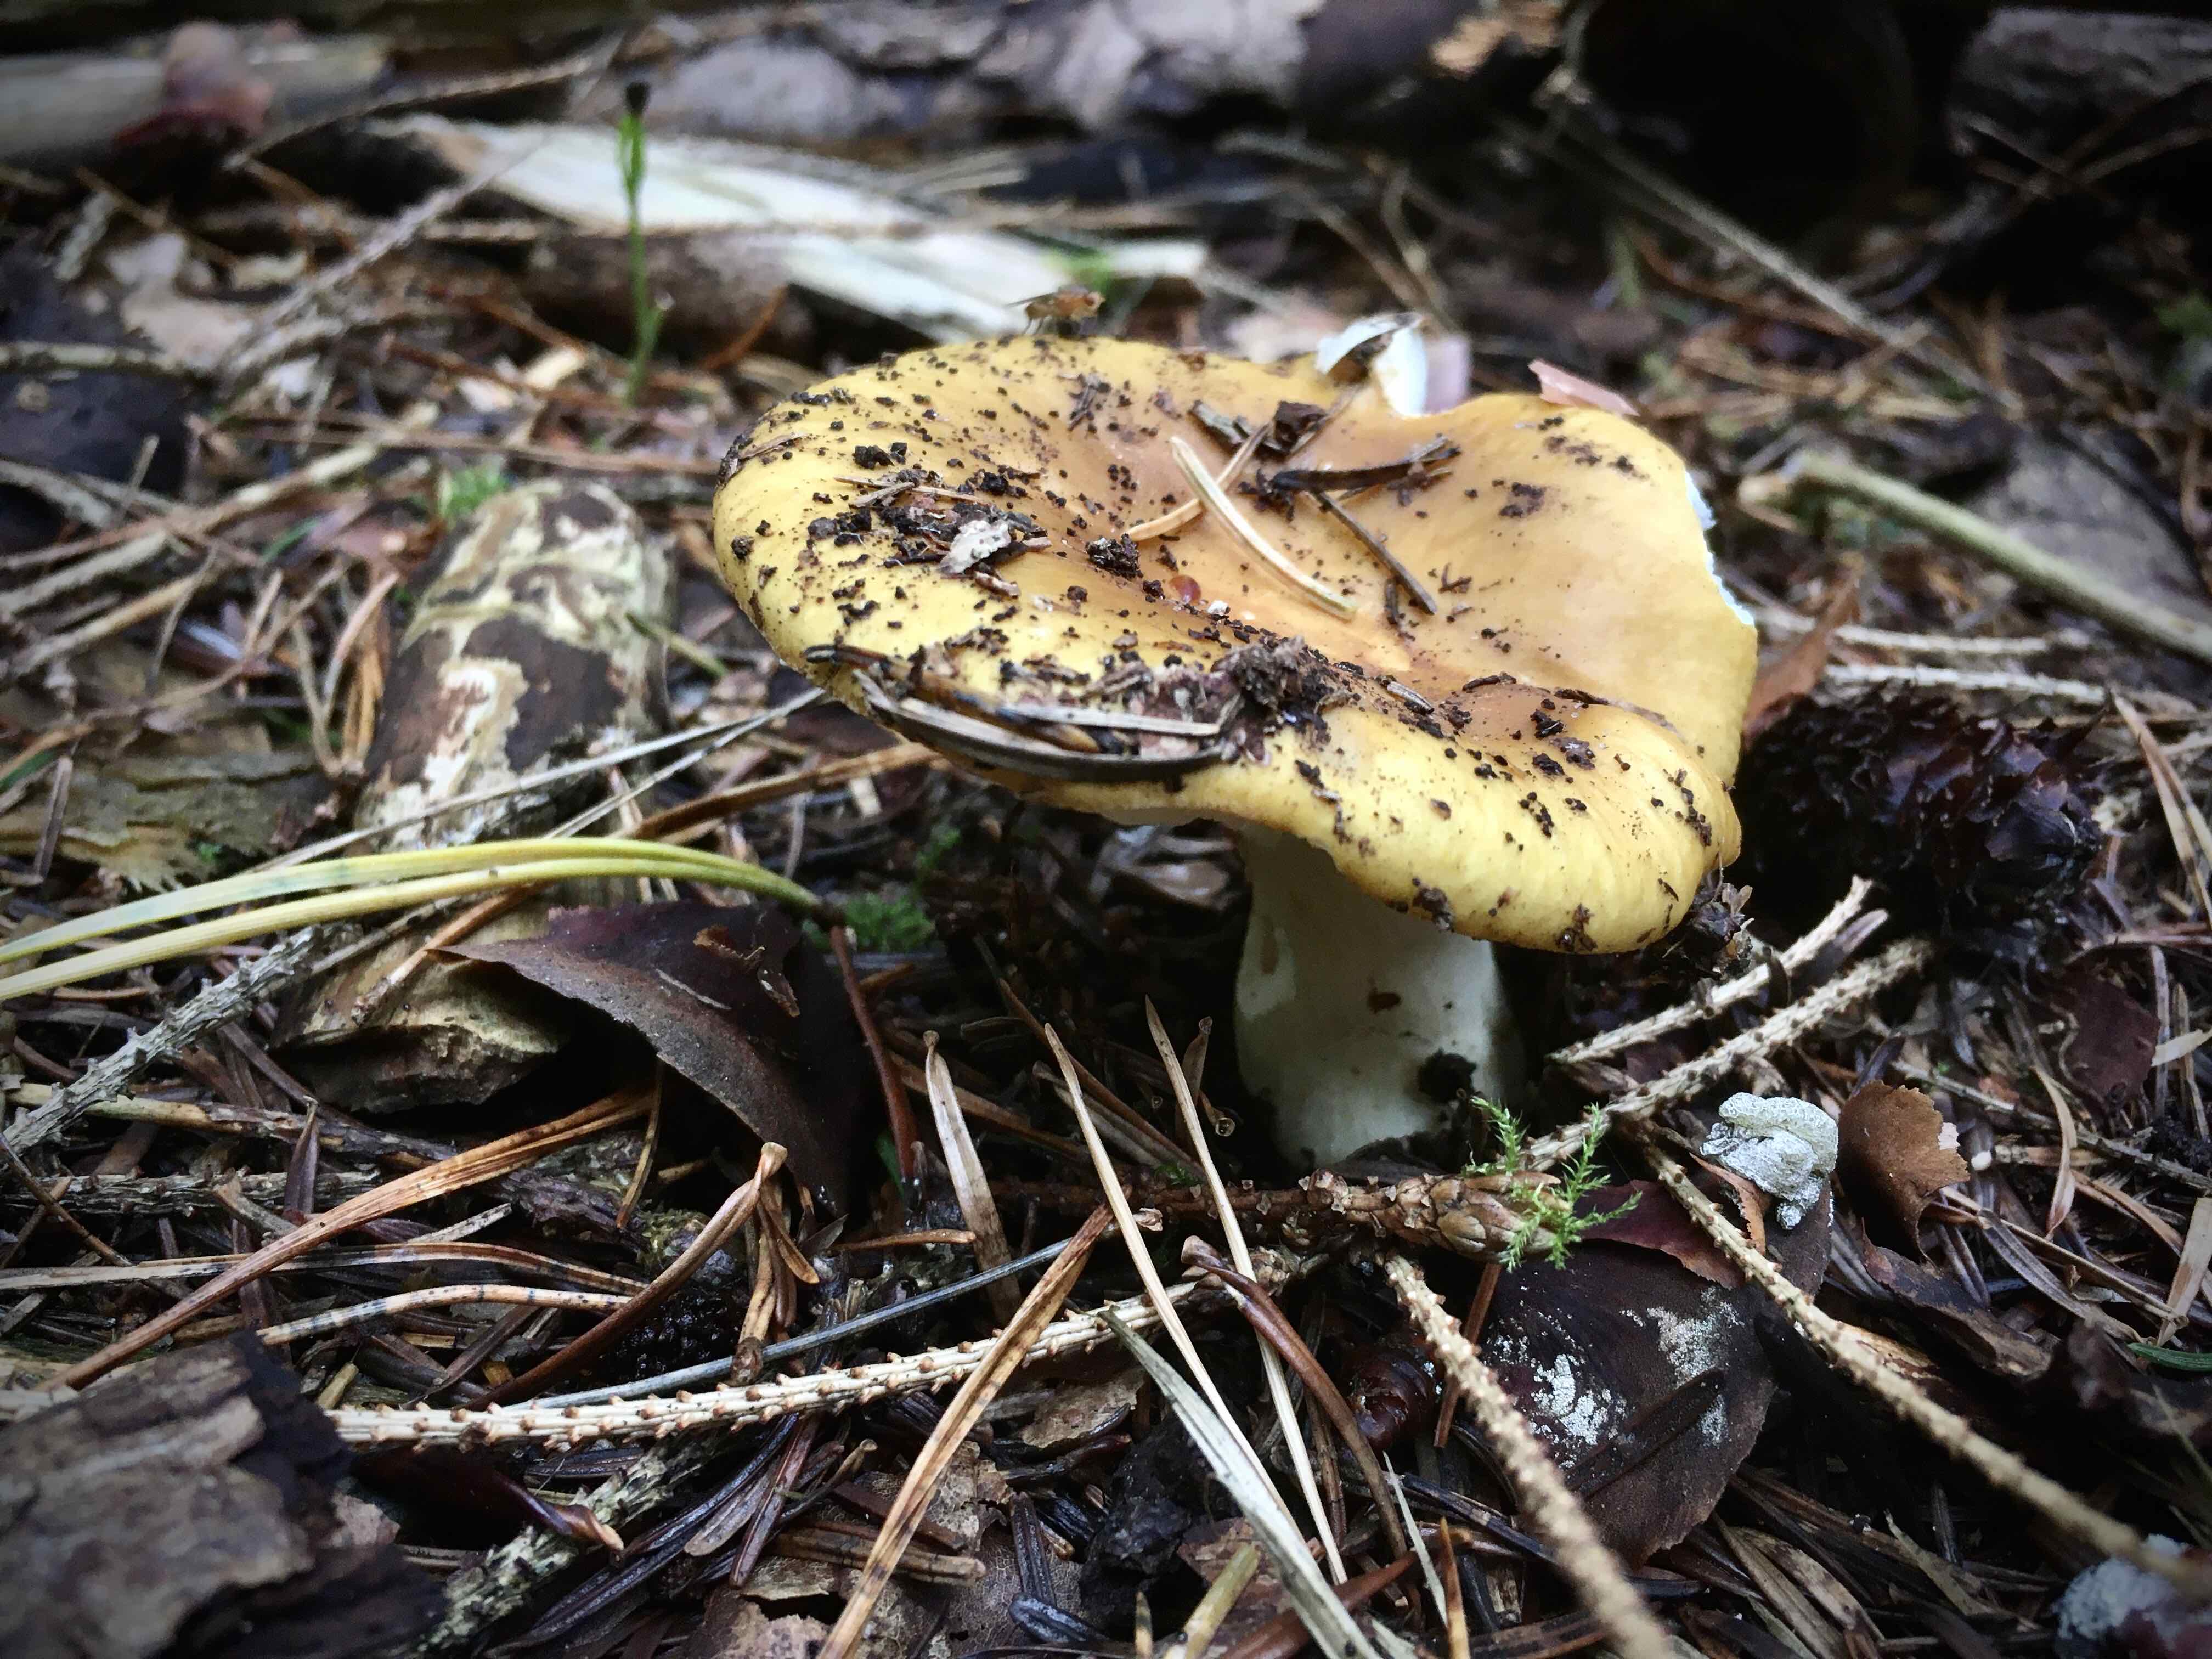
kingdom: Fungi
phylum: Basidiomycota
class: Agaricomycetes
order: Russulales
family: Russulaceae
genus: Russula
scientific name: Russula ochroleuca
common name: okkergul skørhat
